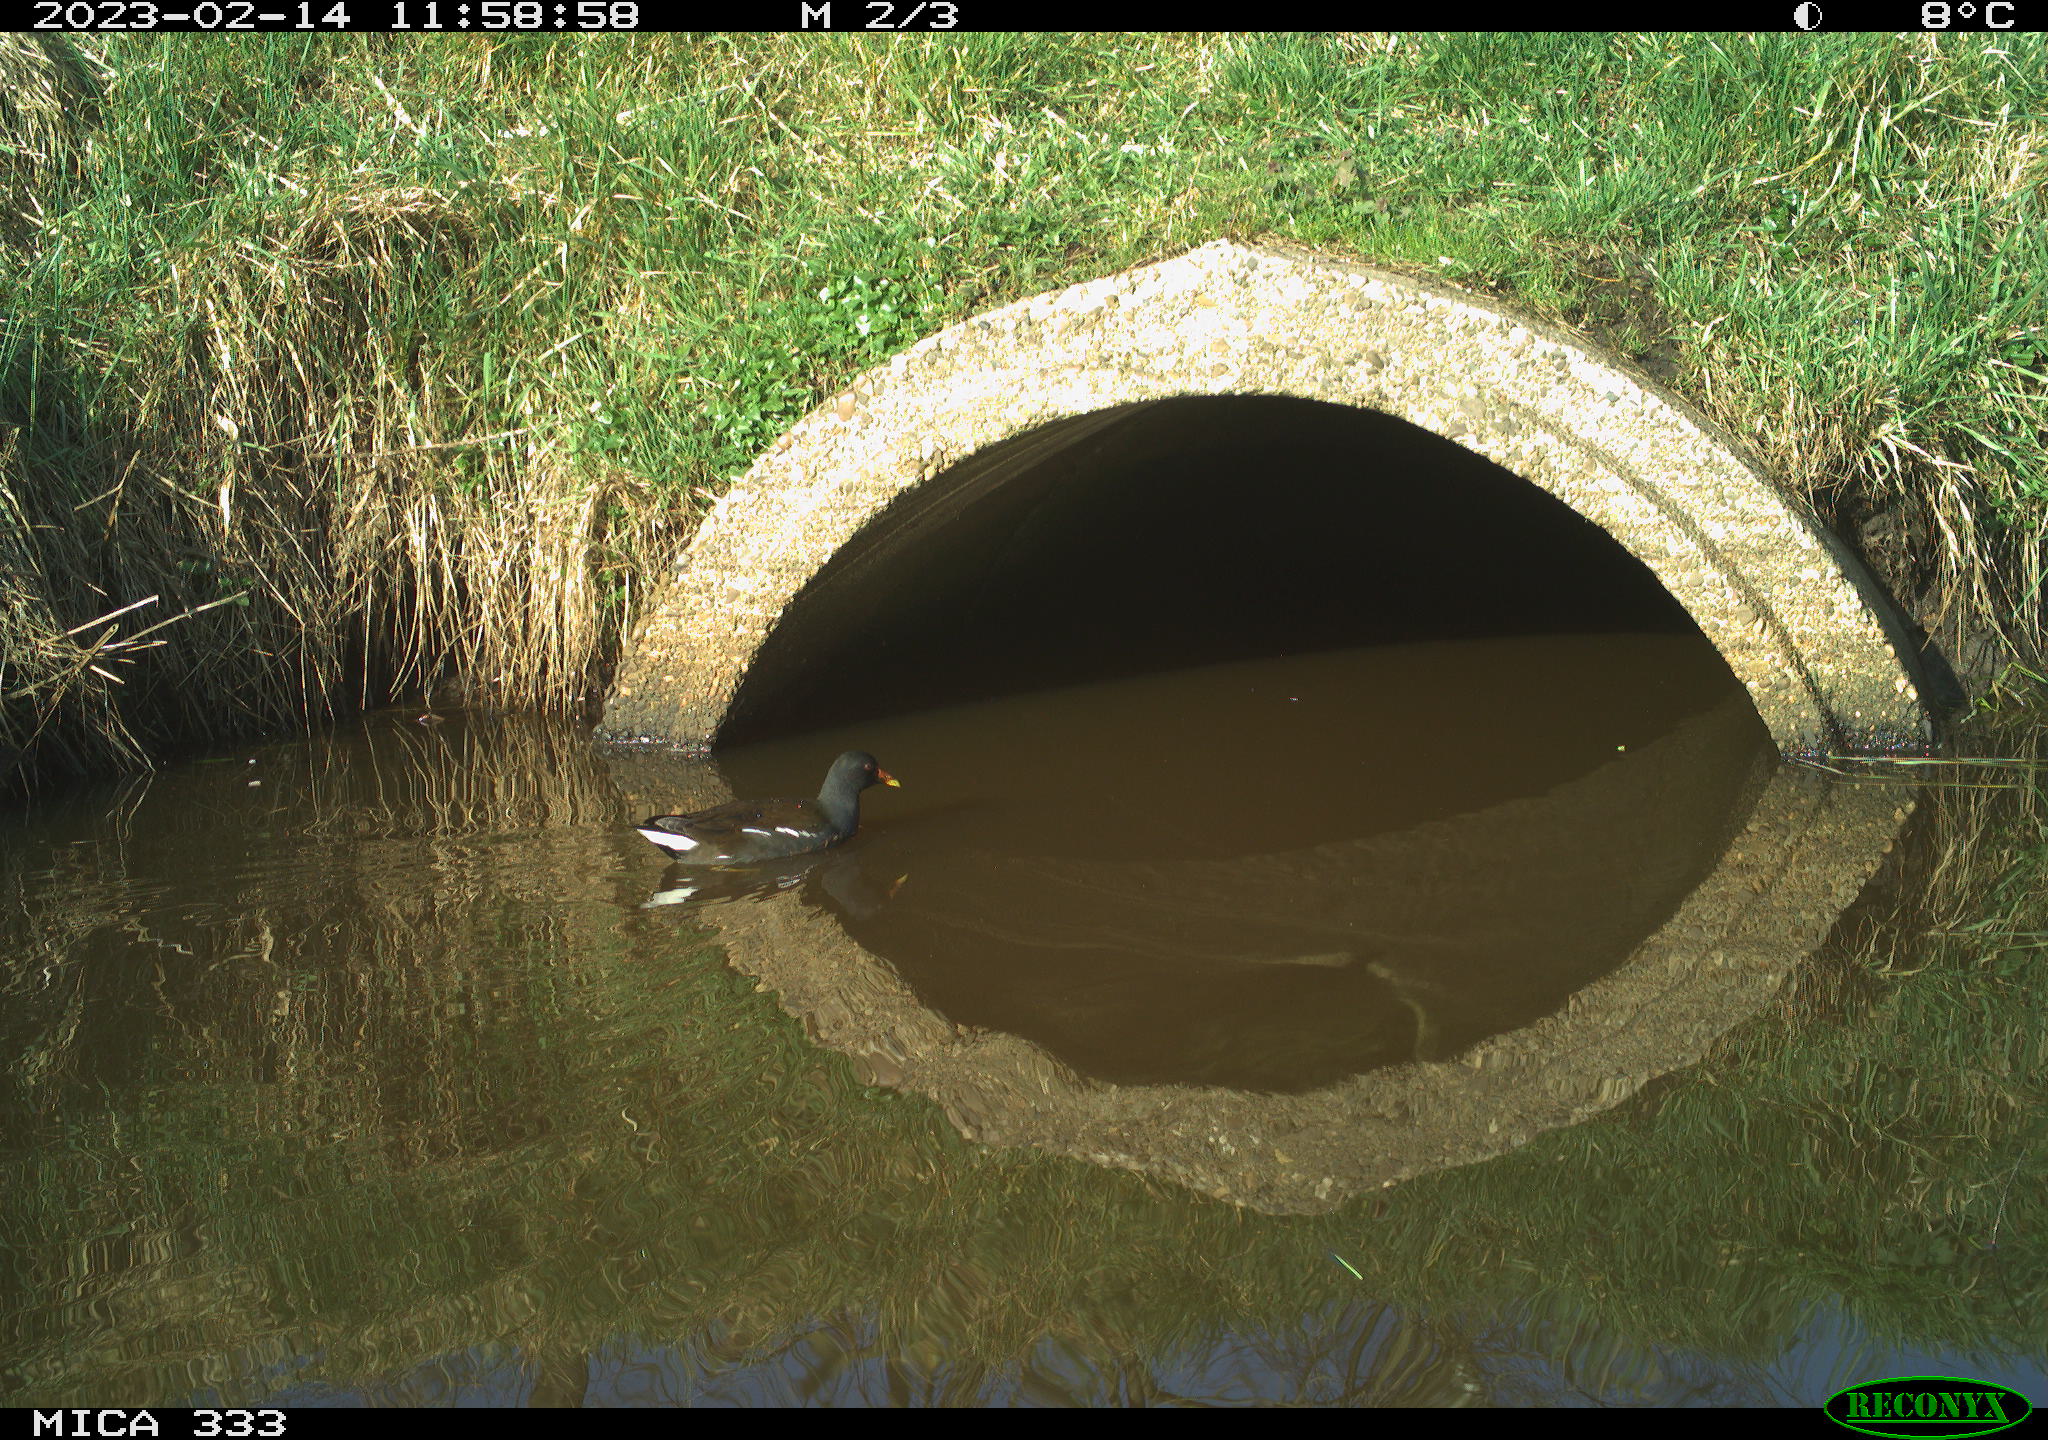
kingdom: Animalia
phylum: Chordata
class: Aves
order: Gruiformes
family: Rallidae
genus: Gallinula
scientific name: Gallinula chloropus
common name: Common moorhen
